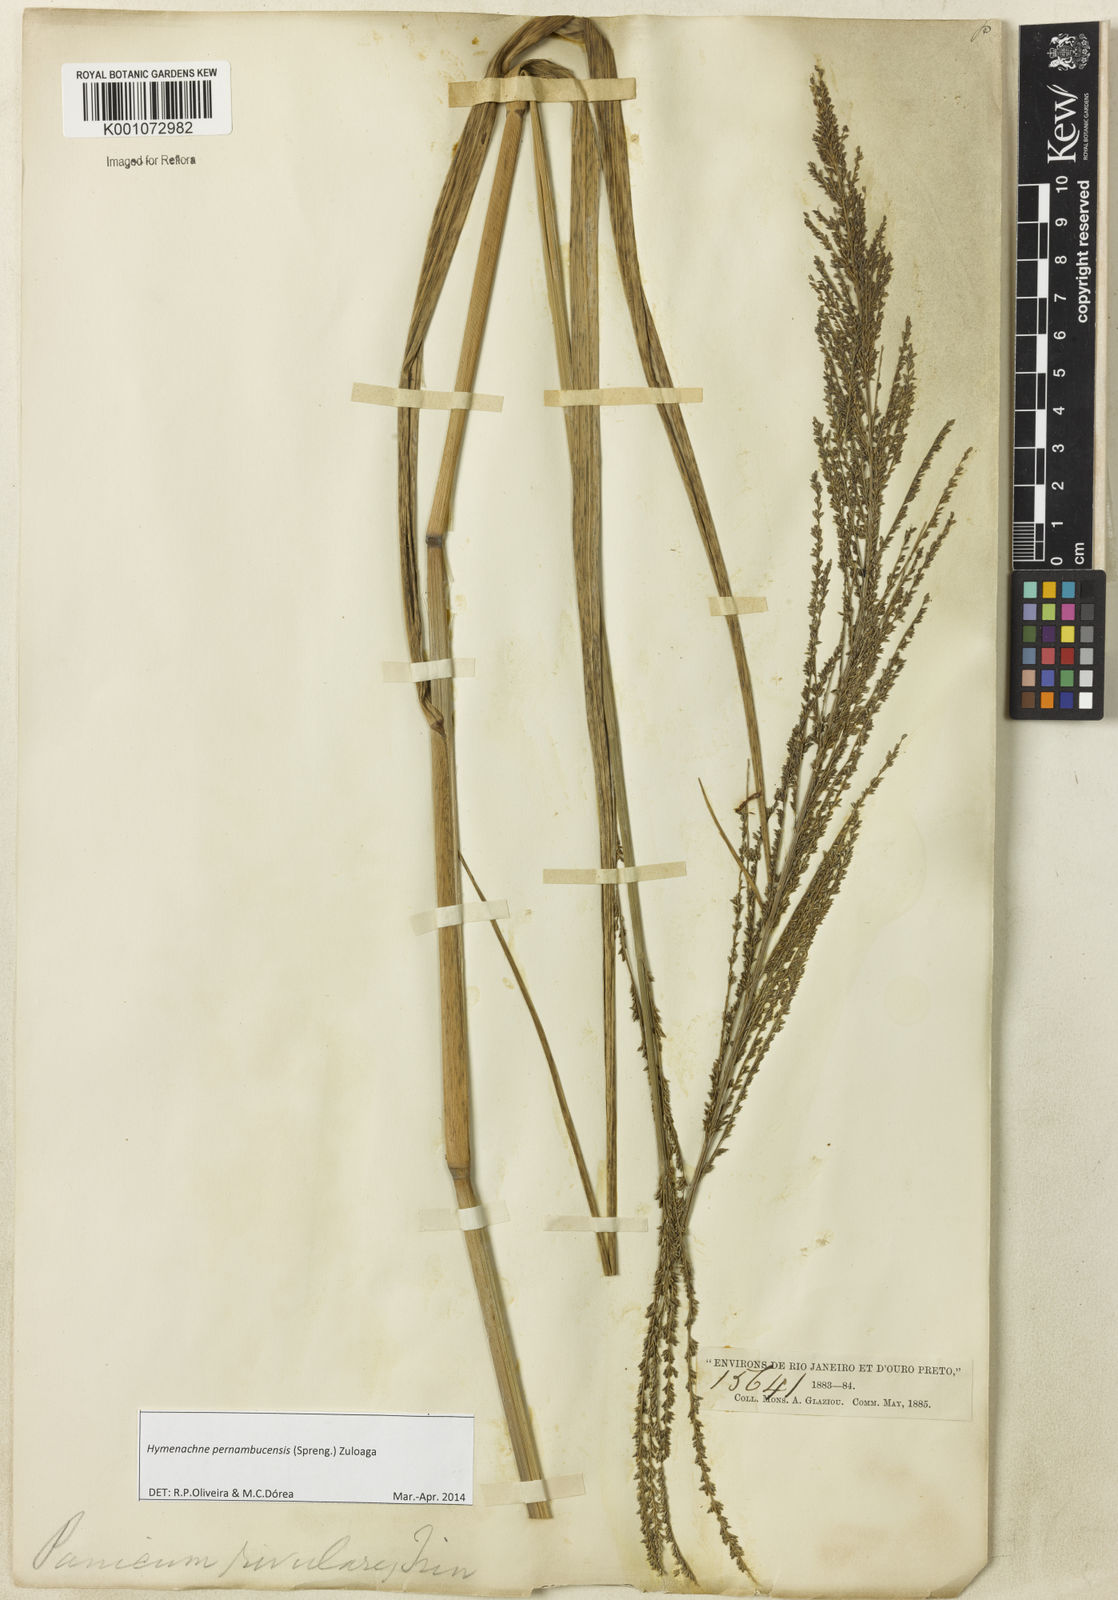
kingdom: Plantae
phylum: Tracheophyta
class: Liliopsida
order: Poales
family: Poaceae
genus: Hymenachne
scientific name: Hymenachne pernambucensis
